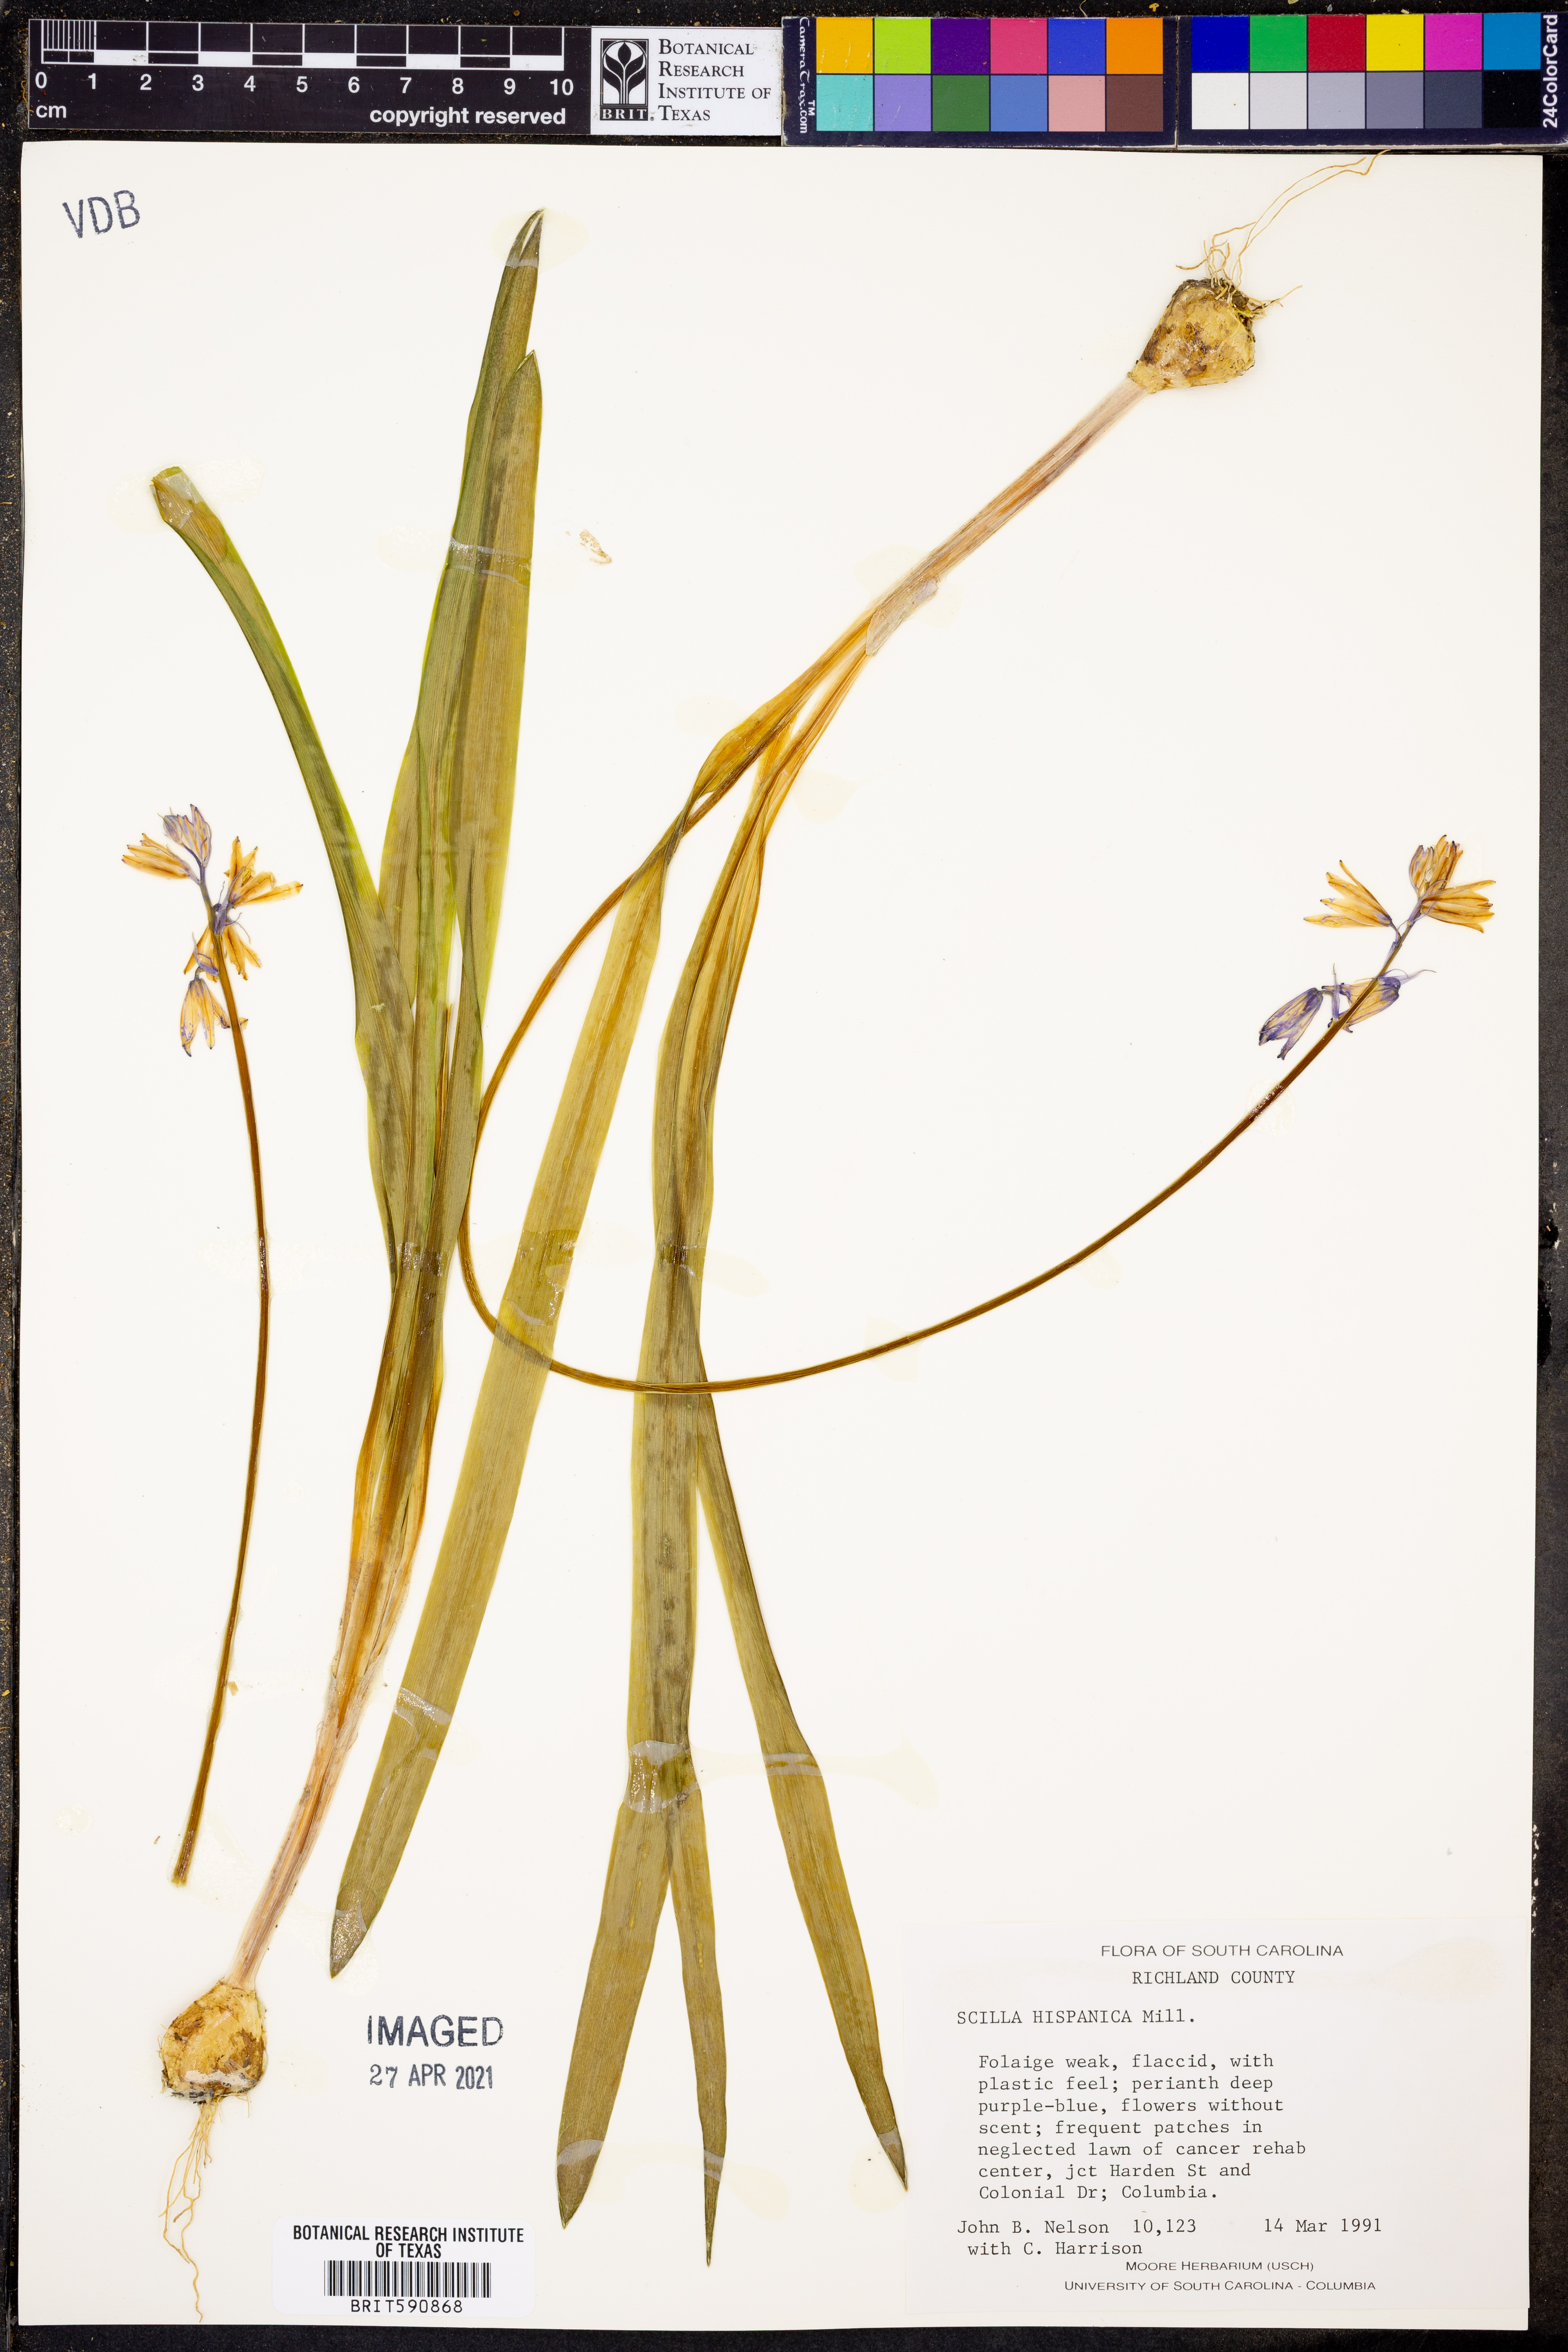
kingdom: Plantae
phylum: Tracheophyta
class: Liliopsida
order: Asparagales
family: Asparagaceae
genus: Hyacinthoides
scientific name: Hyacinthoides hispanica
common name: Spanish bluebell
